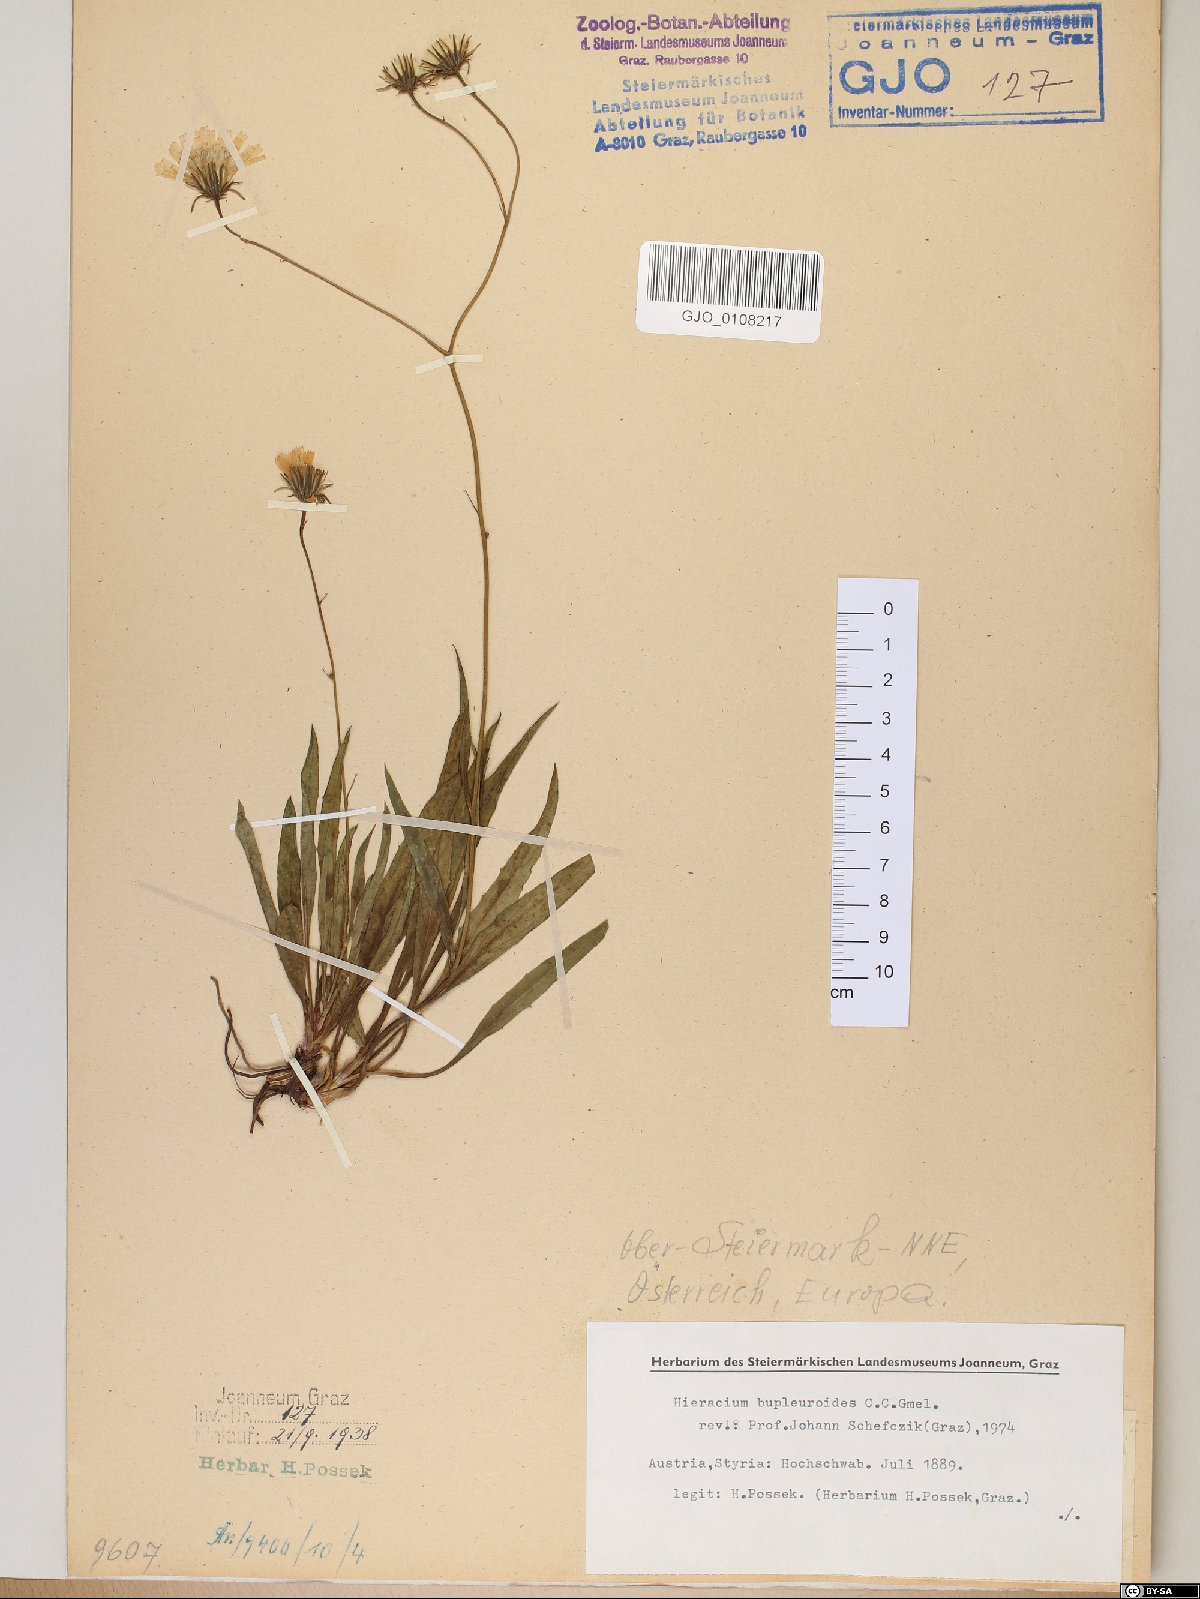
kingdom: Plantae
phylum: Tracheophyta
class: Magnoliopsida
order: Asterales
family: Asteraceae
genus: Hieracium
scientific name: Hieracium bupleuroides
